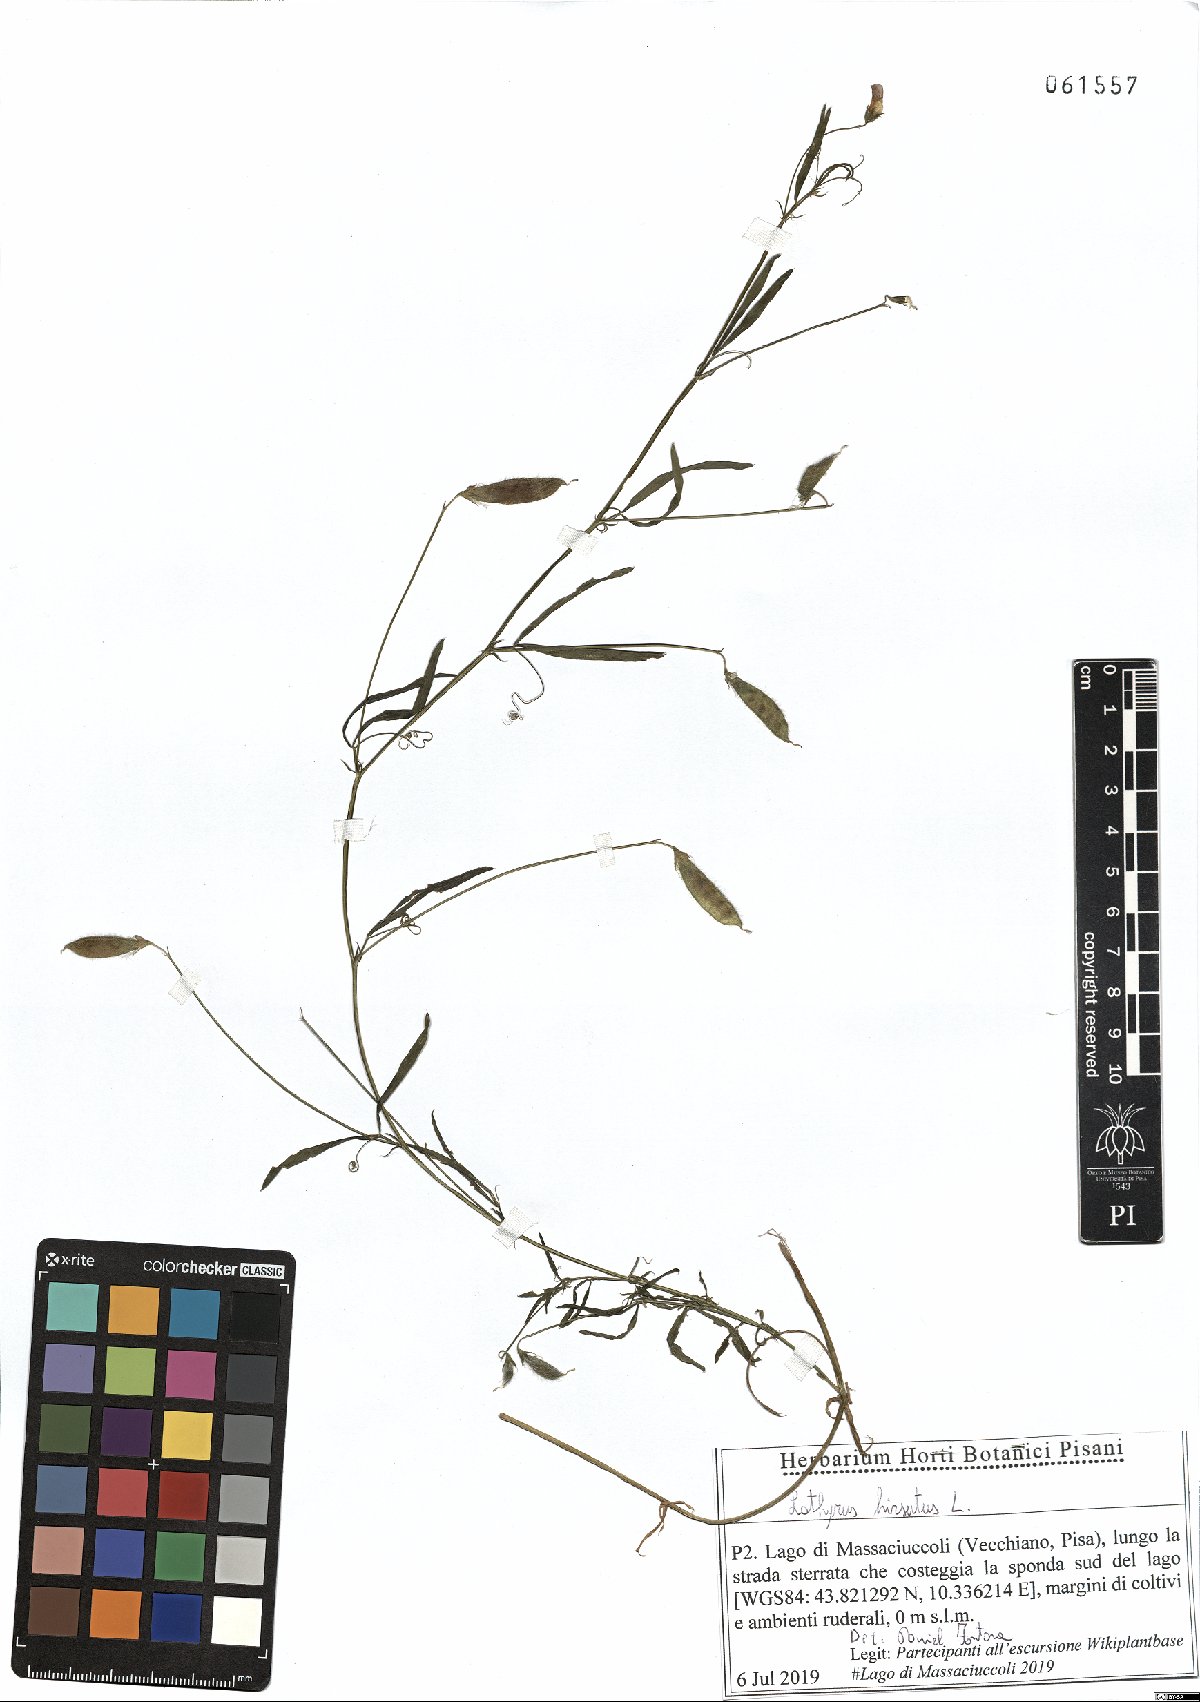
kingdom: Plantae
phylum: Tracheophyta
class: Magnoliopsida
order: Fabales
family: Fabaceae
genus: Lathyrus
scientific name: Lathyrus hirsutus
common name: Hairy vetchling
